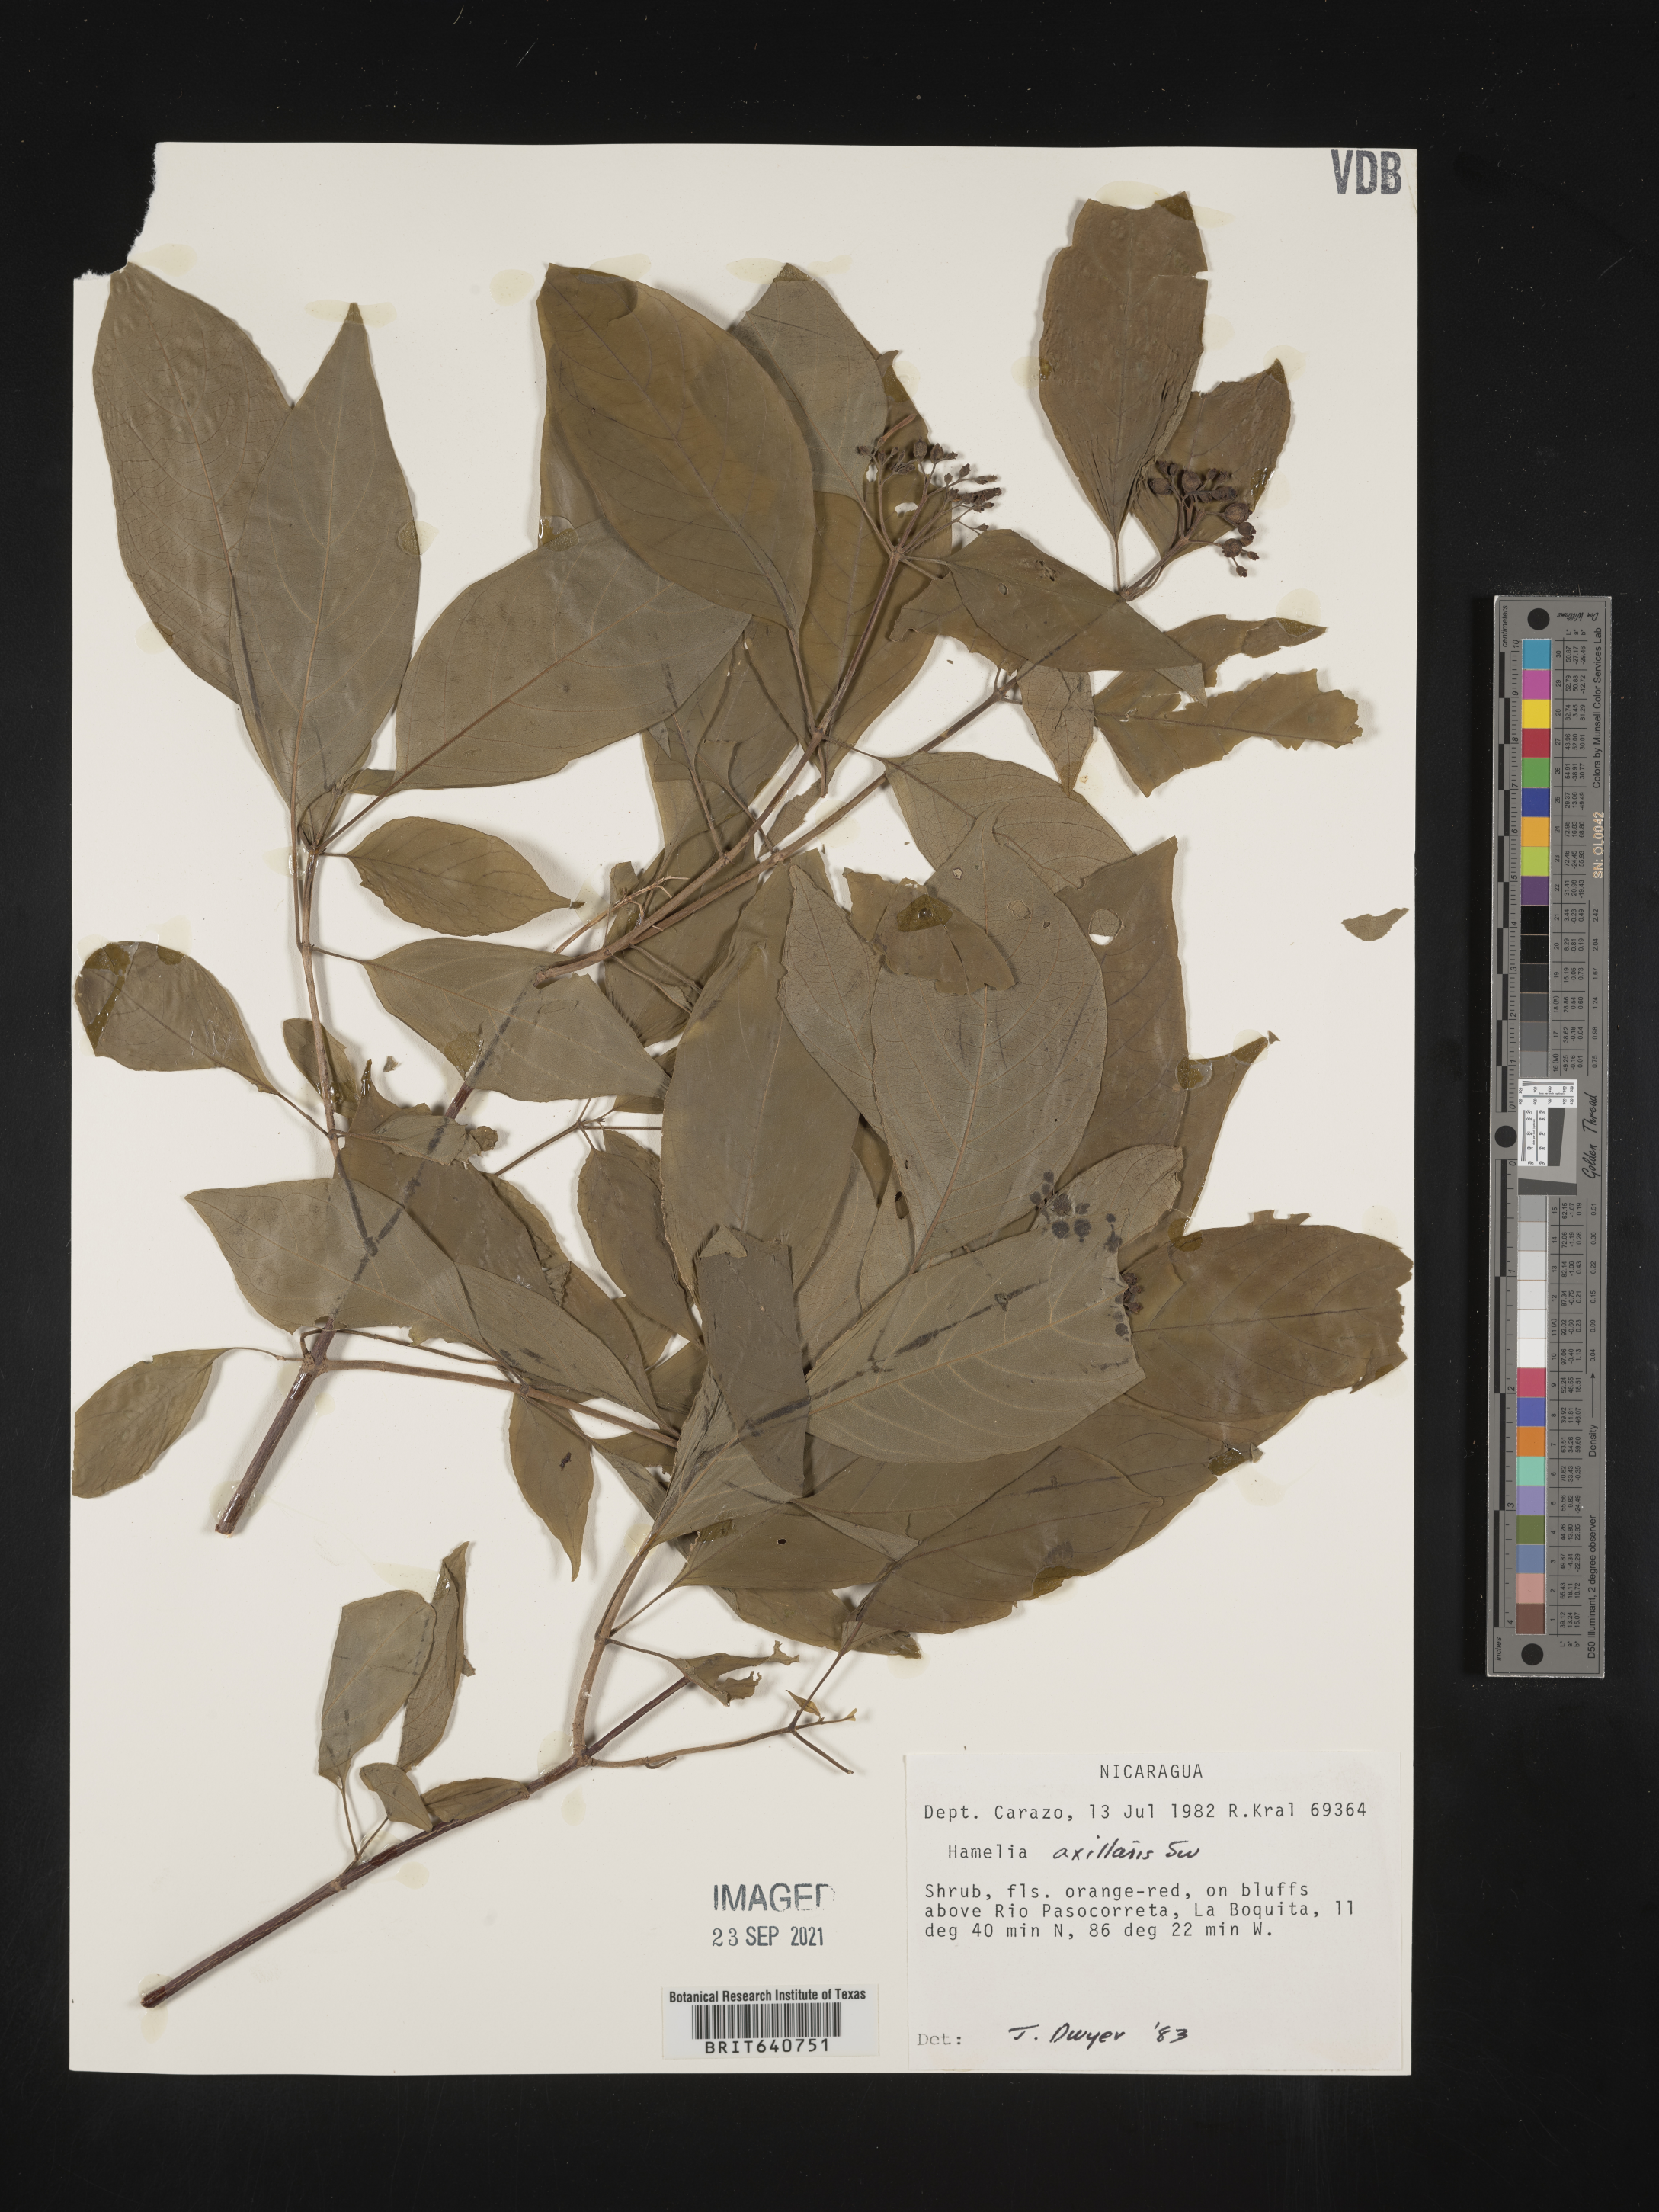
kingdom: Plantae
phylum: Tracheophyta
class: Magnoliopsida
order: Gentianales
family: Rubiaceae
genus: Hamelia
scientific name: Hamelia
